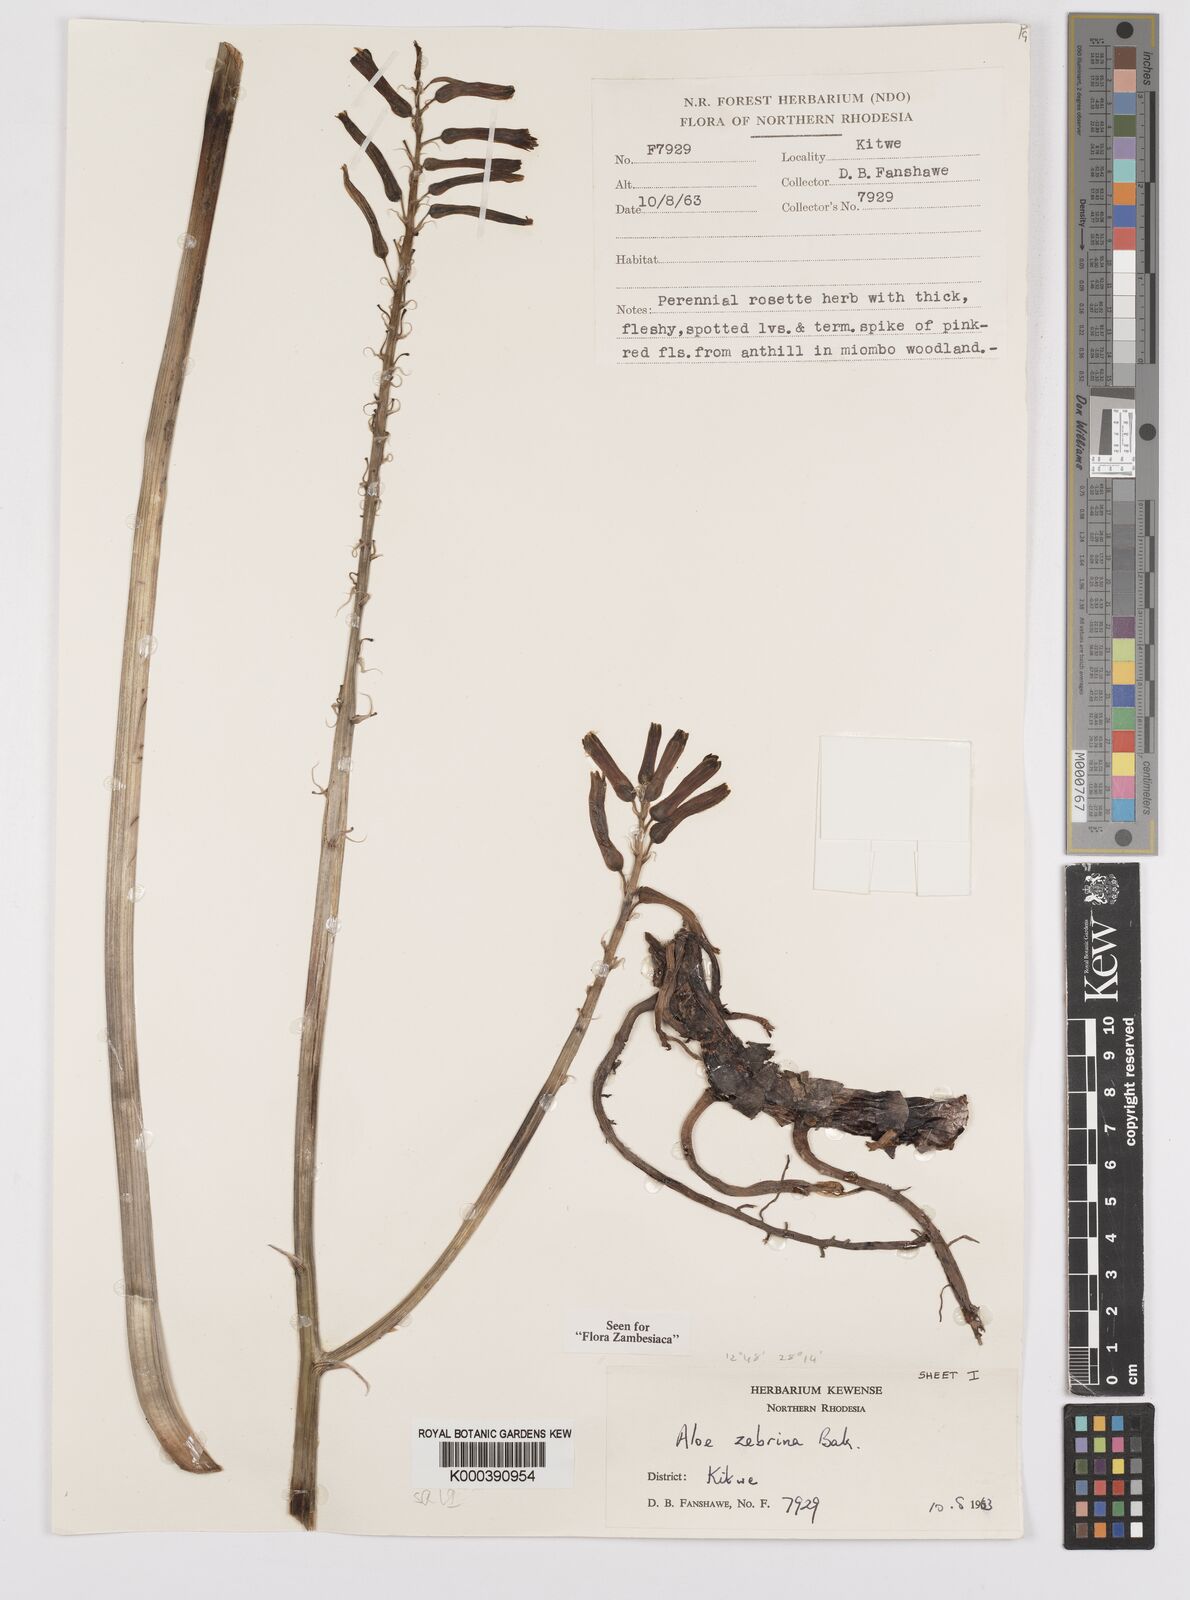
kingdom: Plantae
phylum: Tracheophyta
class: Liliopsida
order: Asparagales
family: Asphodelaceae
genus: Aloe
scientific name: Aloe zebrina
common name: Zebra-leaf aloe
